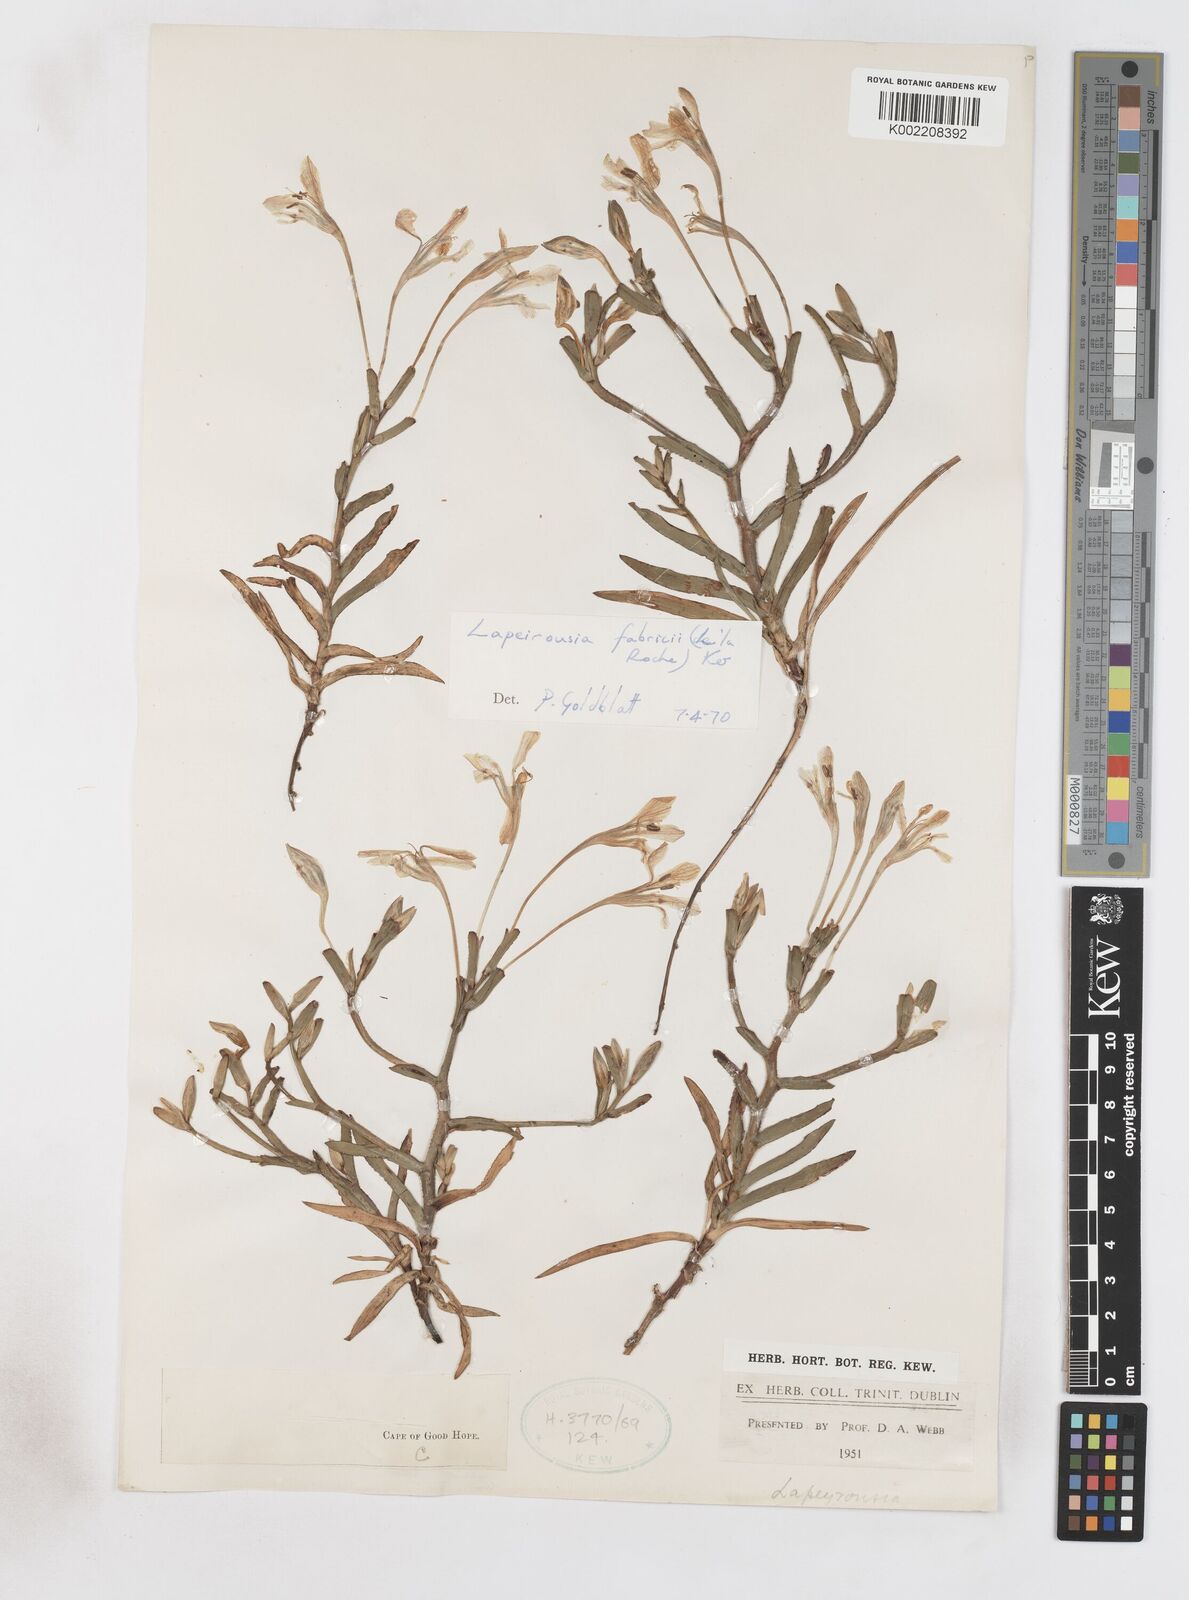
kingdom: Plantae
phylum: Tracheophyta
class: Liliopsida
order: Asparagales
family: Iridaceae
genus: Lapeirousia
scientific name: Lapeirousia fabricii
